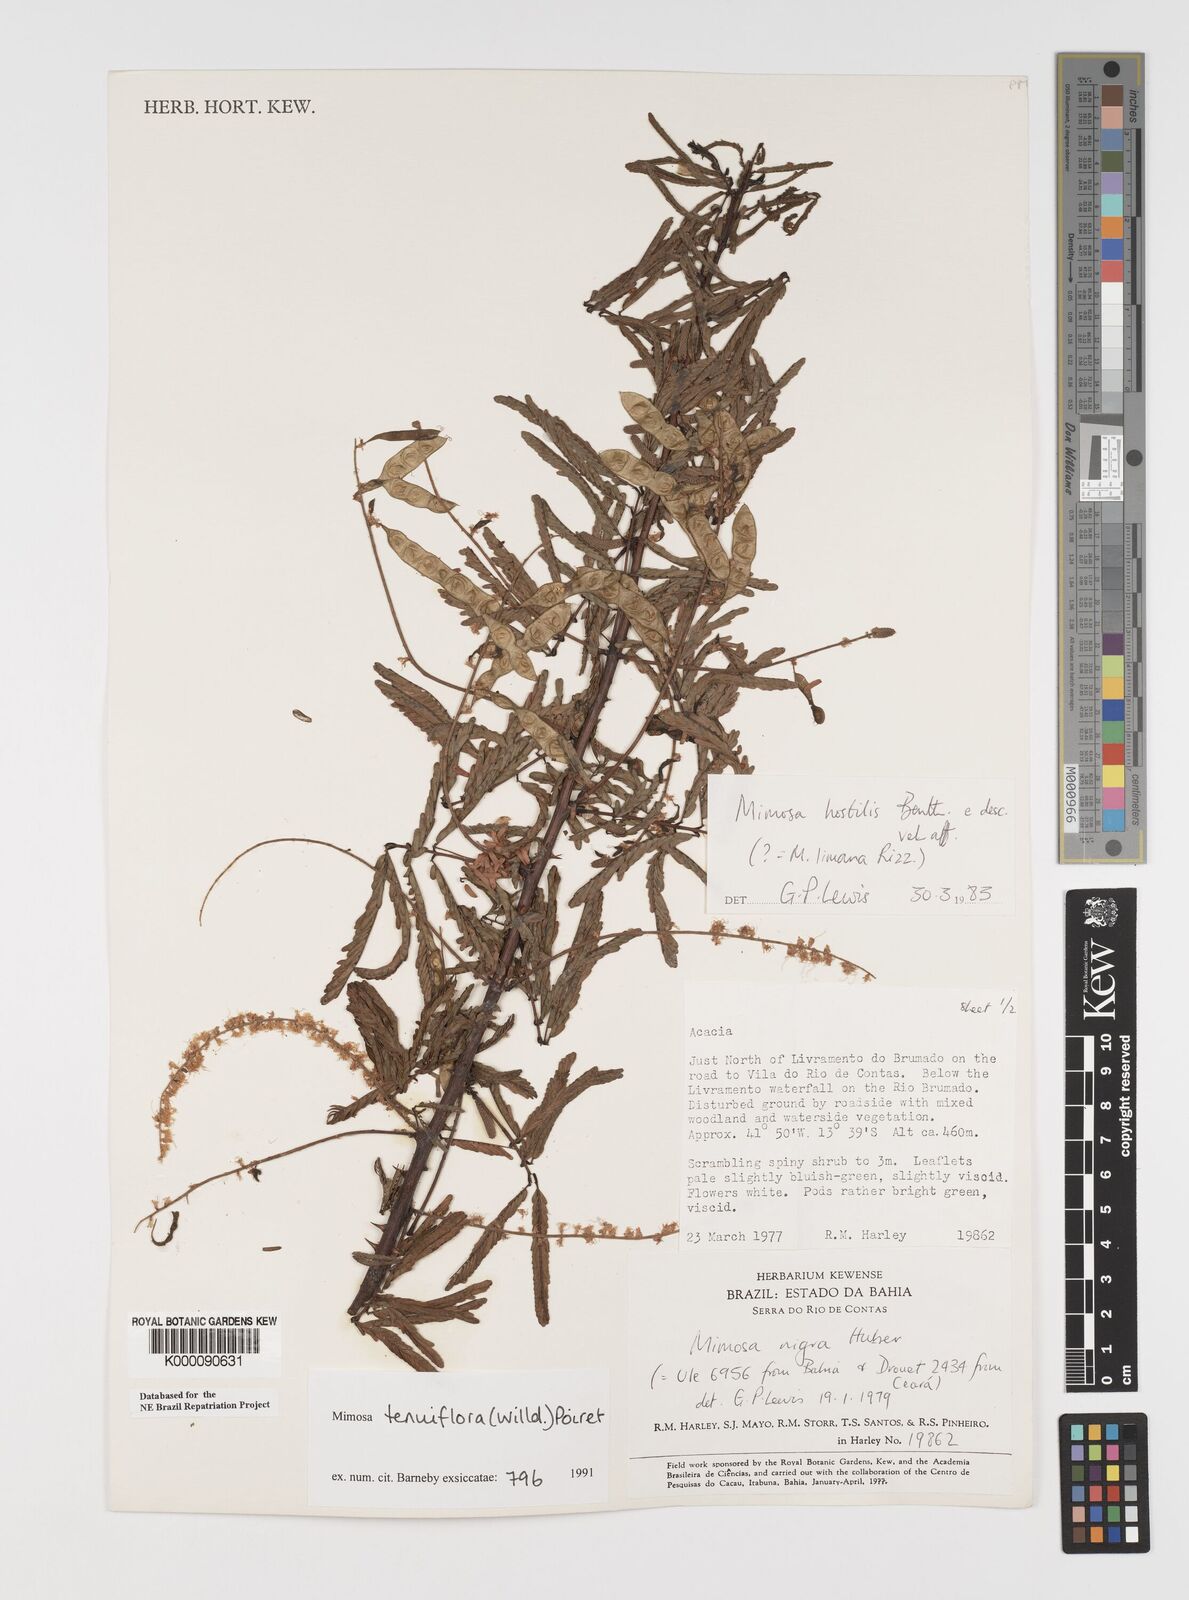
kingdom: Plantae
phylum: Tracheophyta
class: Magnoliopsida
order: Fabales
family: Fabaceae
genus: Mimosa
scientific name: Mimosa tenuiflora
